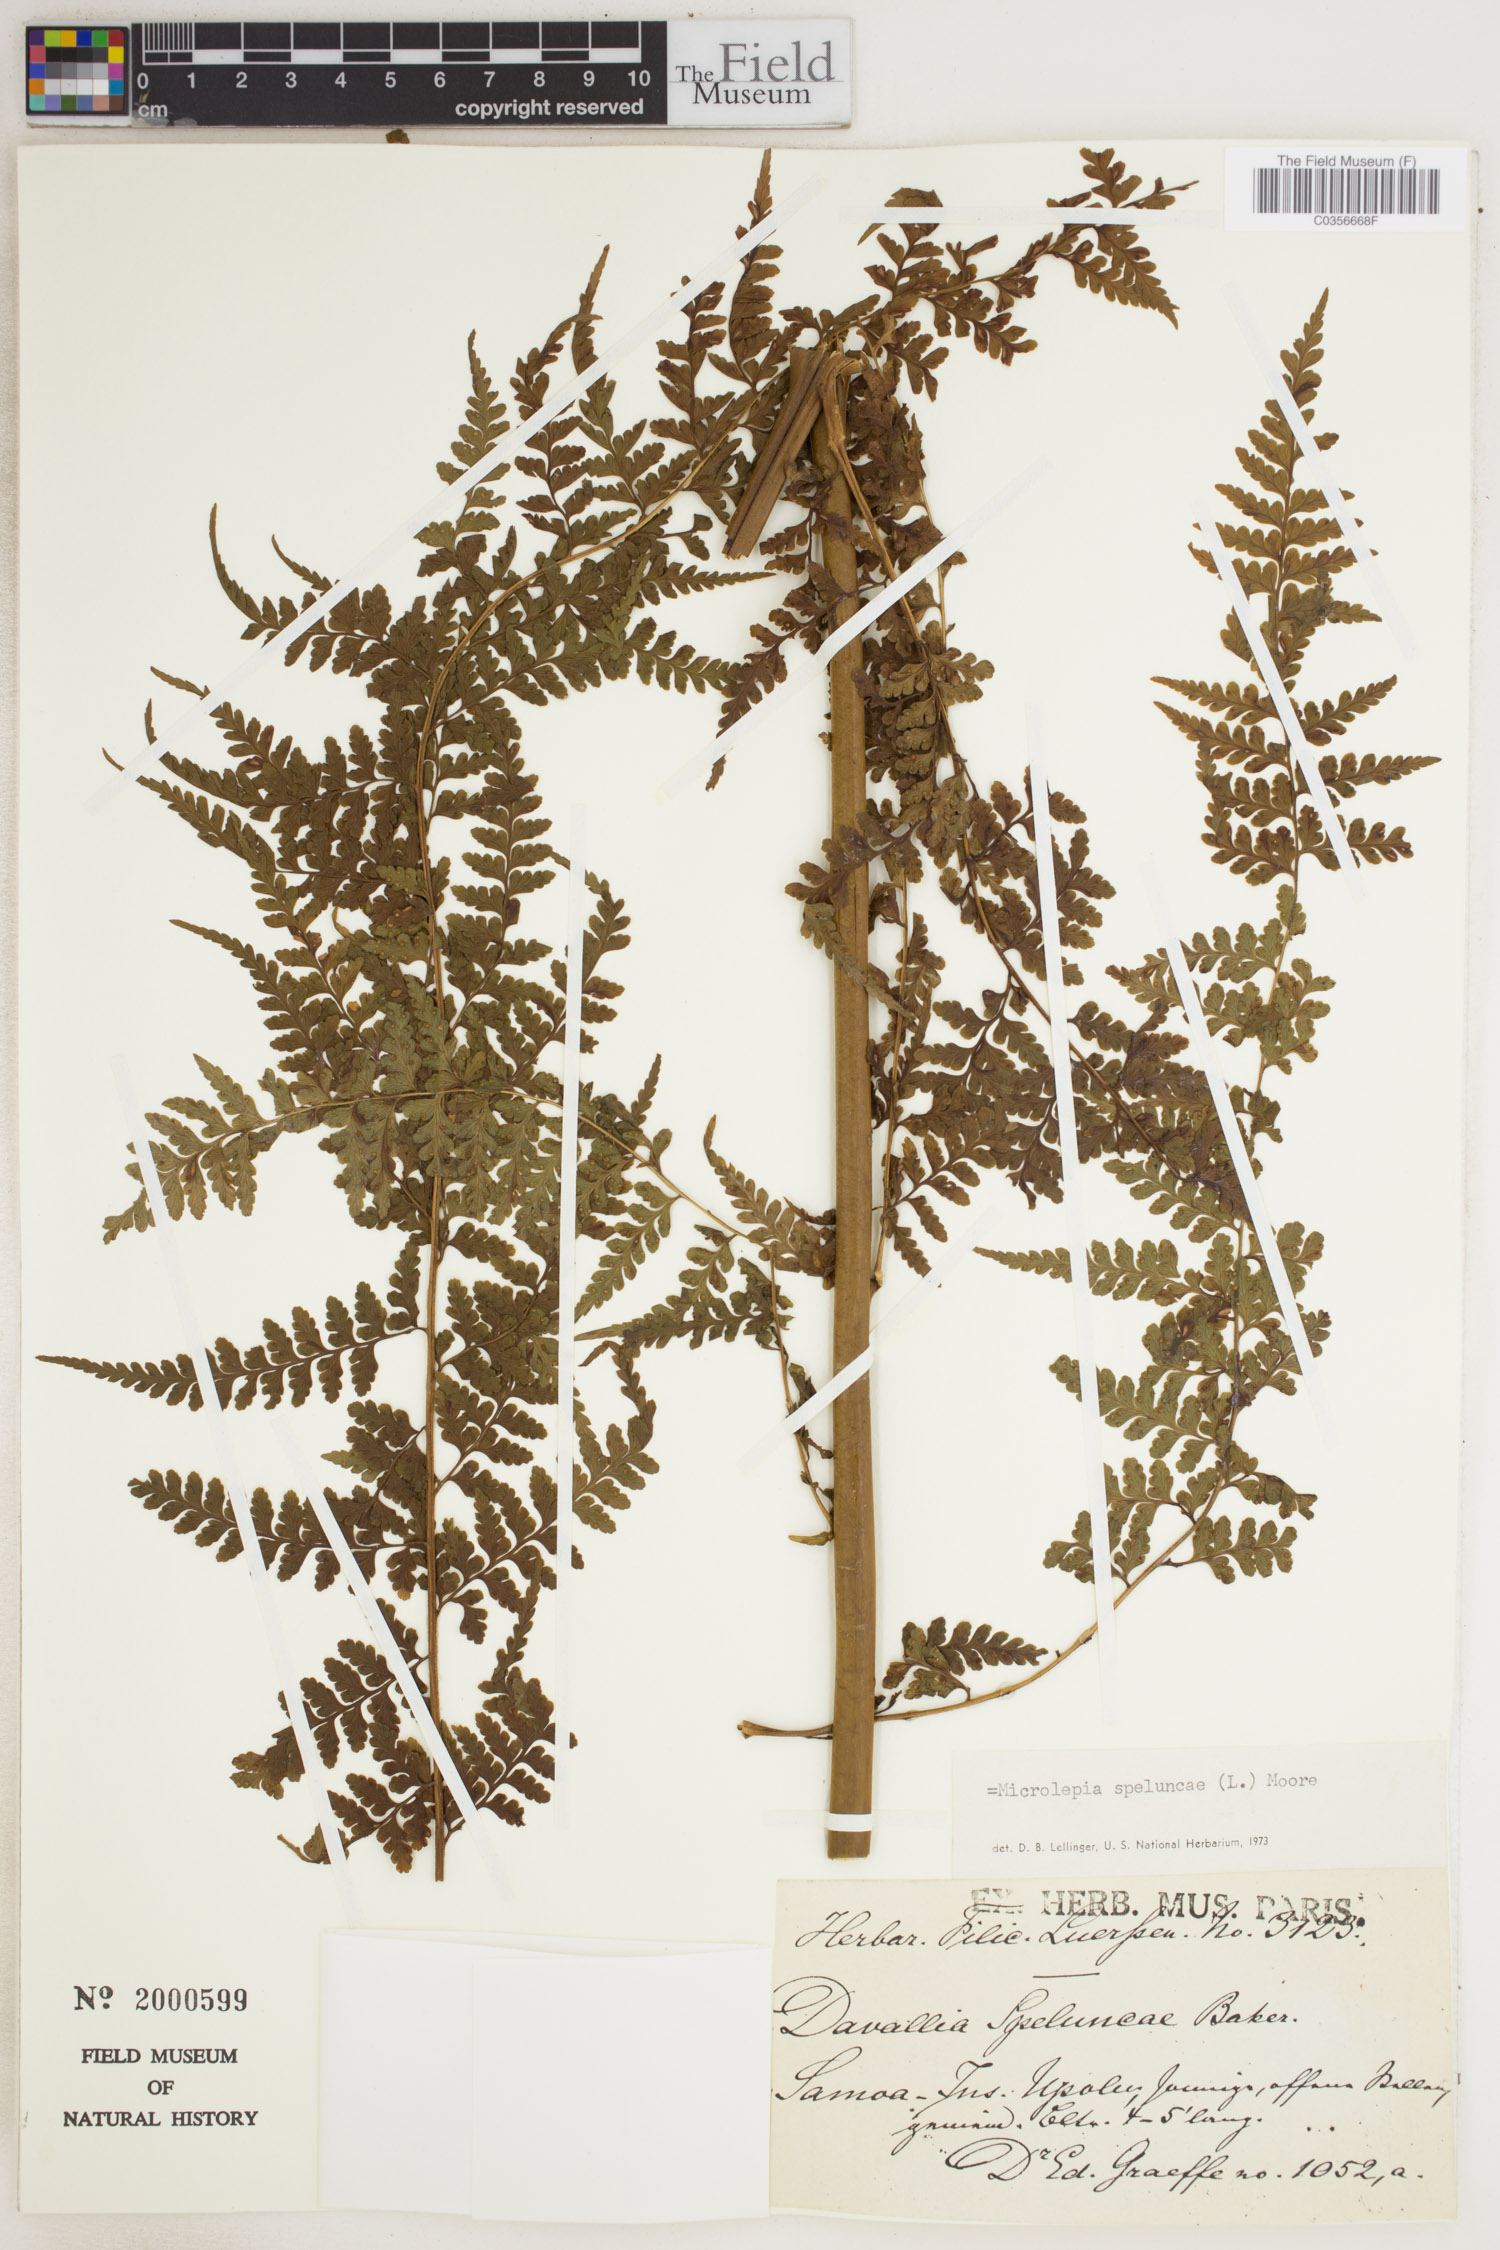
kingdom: Plantae
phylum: Tracheophyta
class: Polypodiopsida
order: Polypodiales
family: Dennstaedtiaceae
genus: Microlepia
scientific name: Microlepia speluncae
